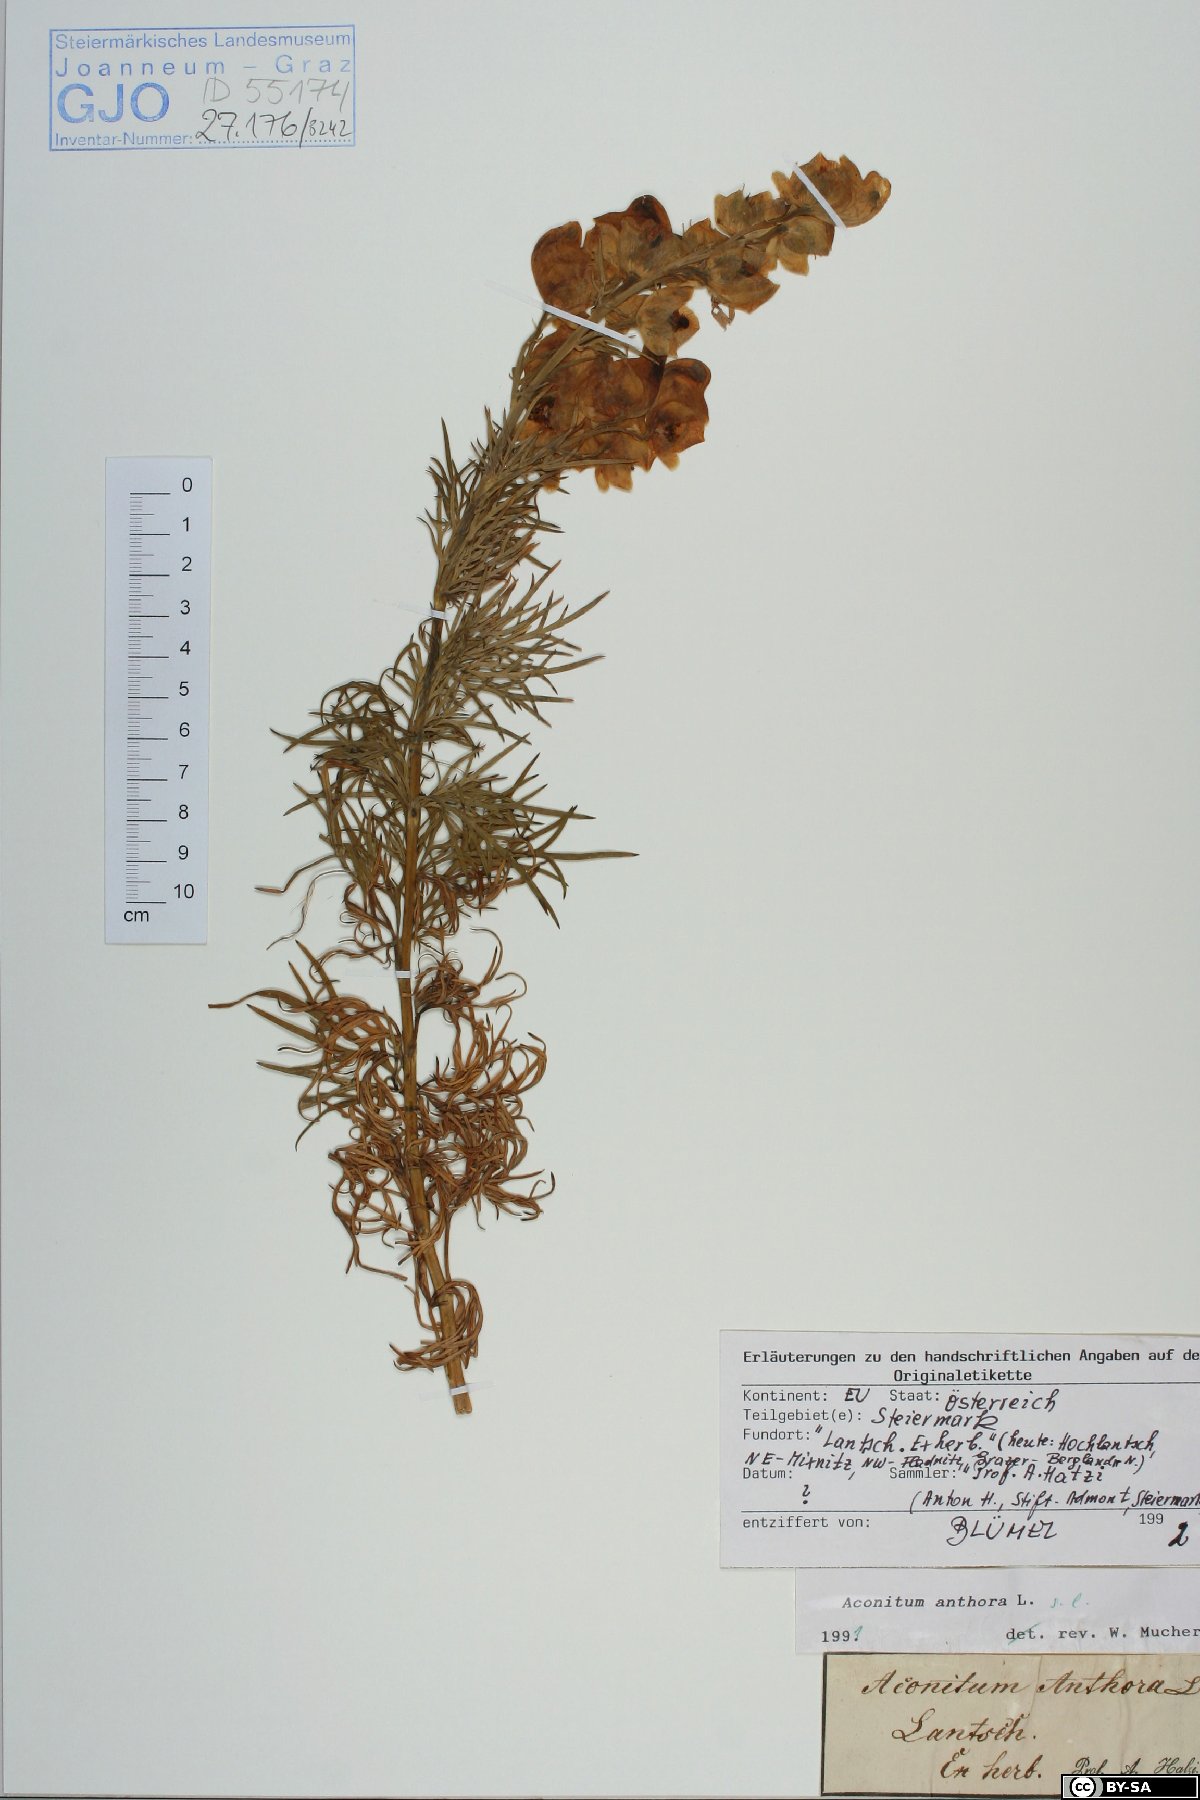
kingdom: Plantae
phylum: Tracheophyta
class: Magnoliopsida
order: Ranunculales
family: Ranunculaceae
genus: Aconitum
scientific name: Aconitum anthora
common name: Yellow monkshood
